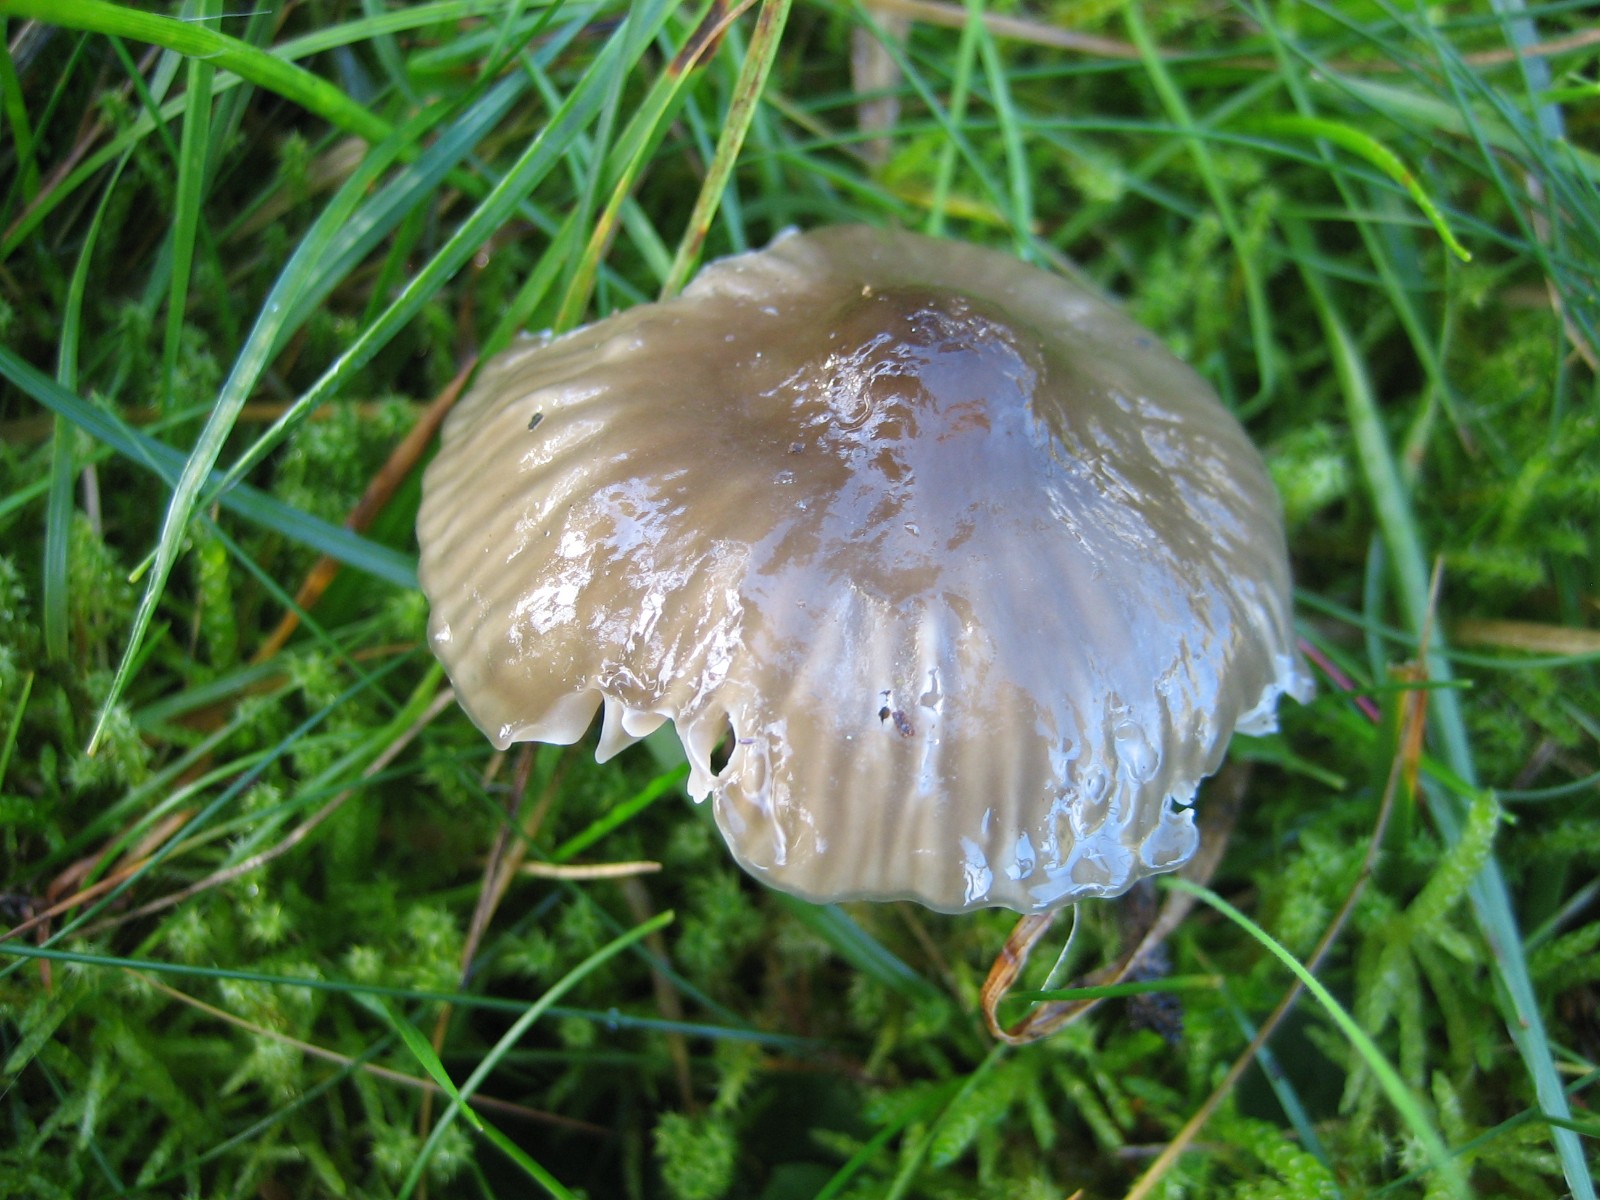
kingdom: Fungi
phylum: Basidiomycota
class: Agaricomycetes
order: Agaricales
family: Hygrophoraceae
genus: Gliophorus
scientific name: Gliophorus irrigatus
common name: slimet vokshat
